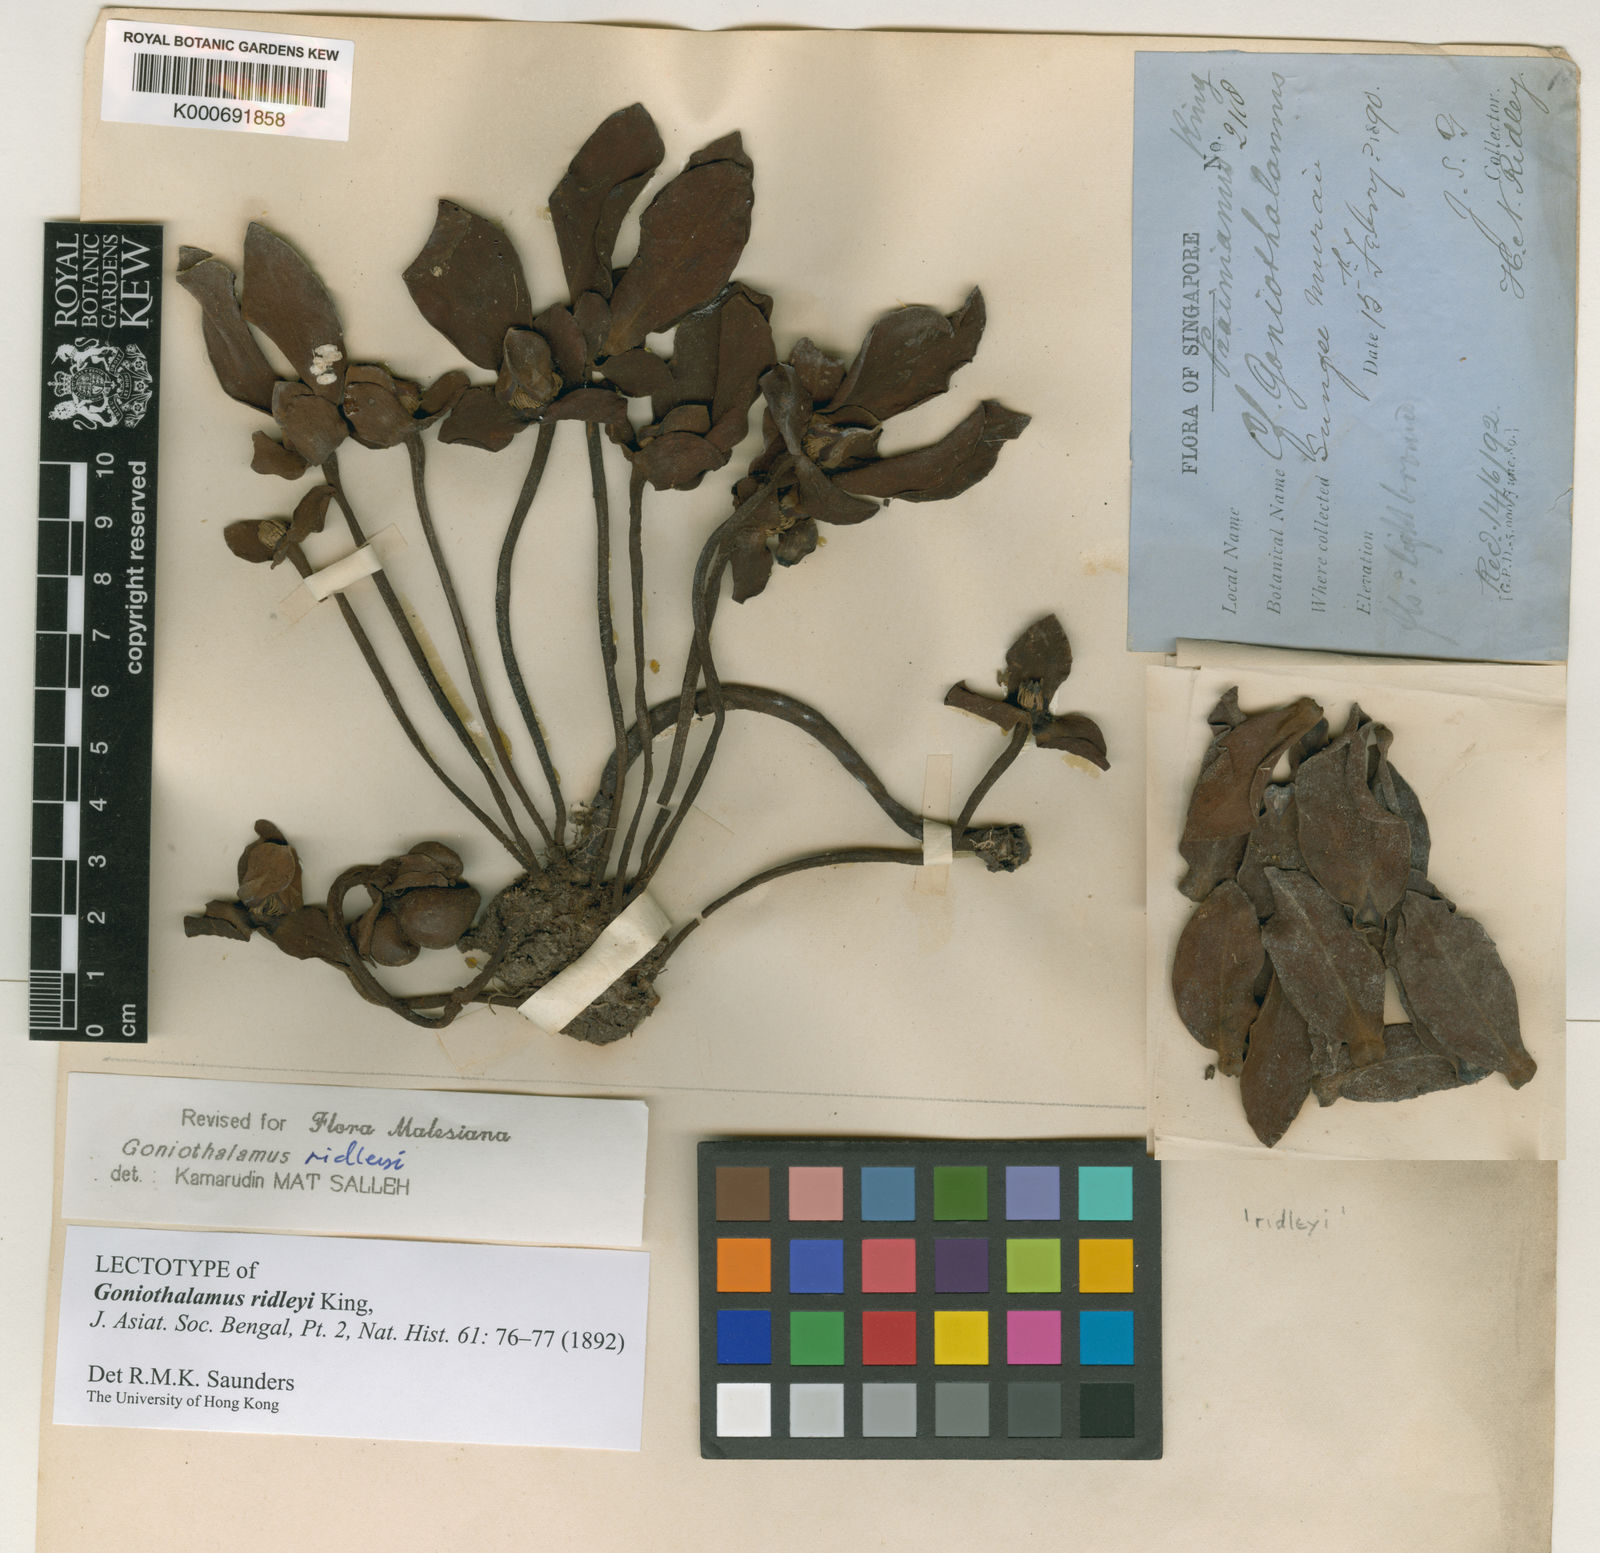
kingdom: Plantae
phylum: Tracheophyta
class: Magnoliopsida
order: Magnoliales
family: Annonaceae
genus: Goniothalamus
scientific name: Goniothalamus ridleyi
